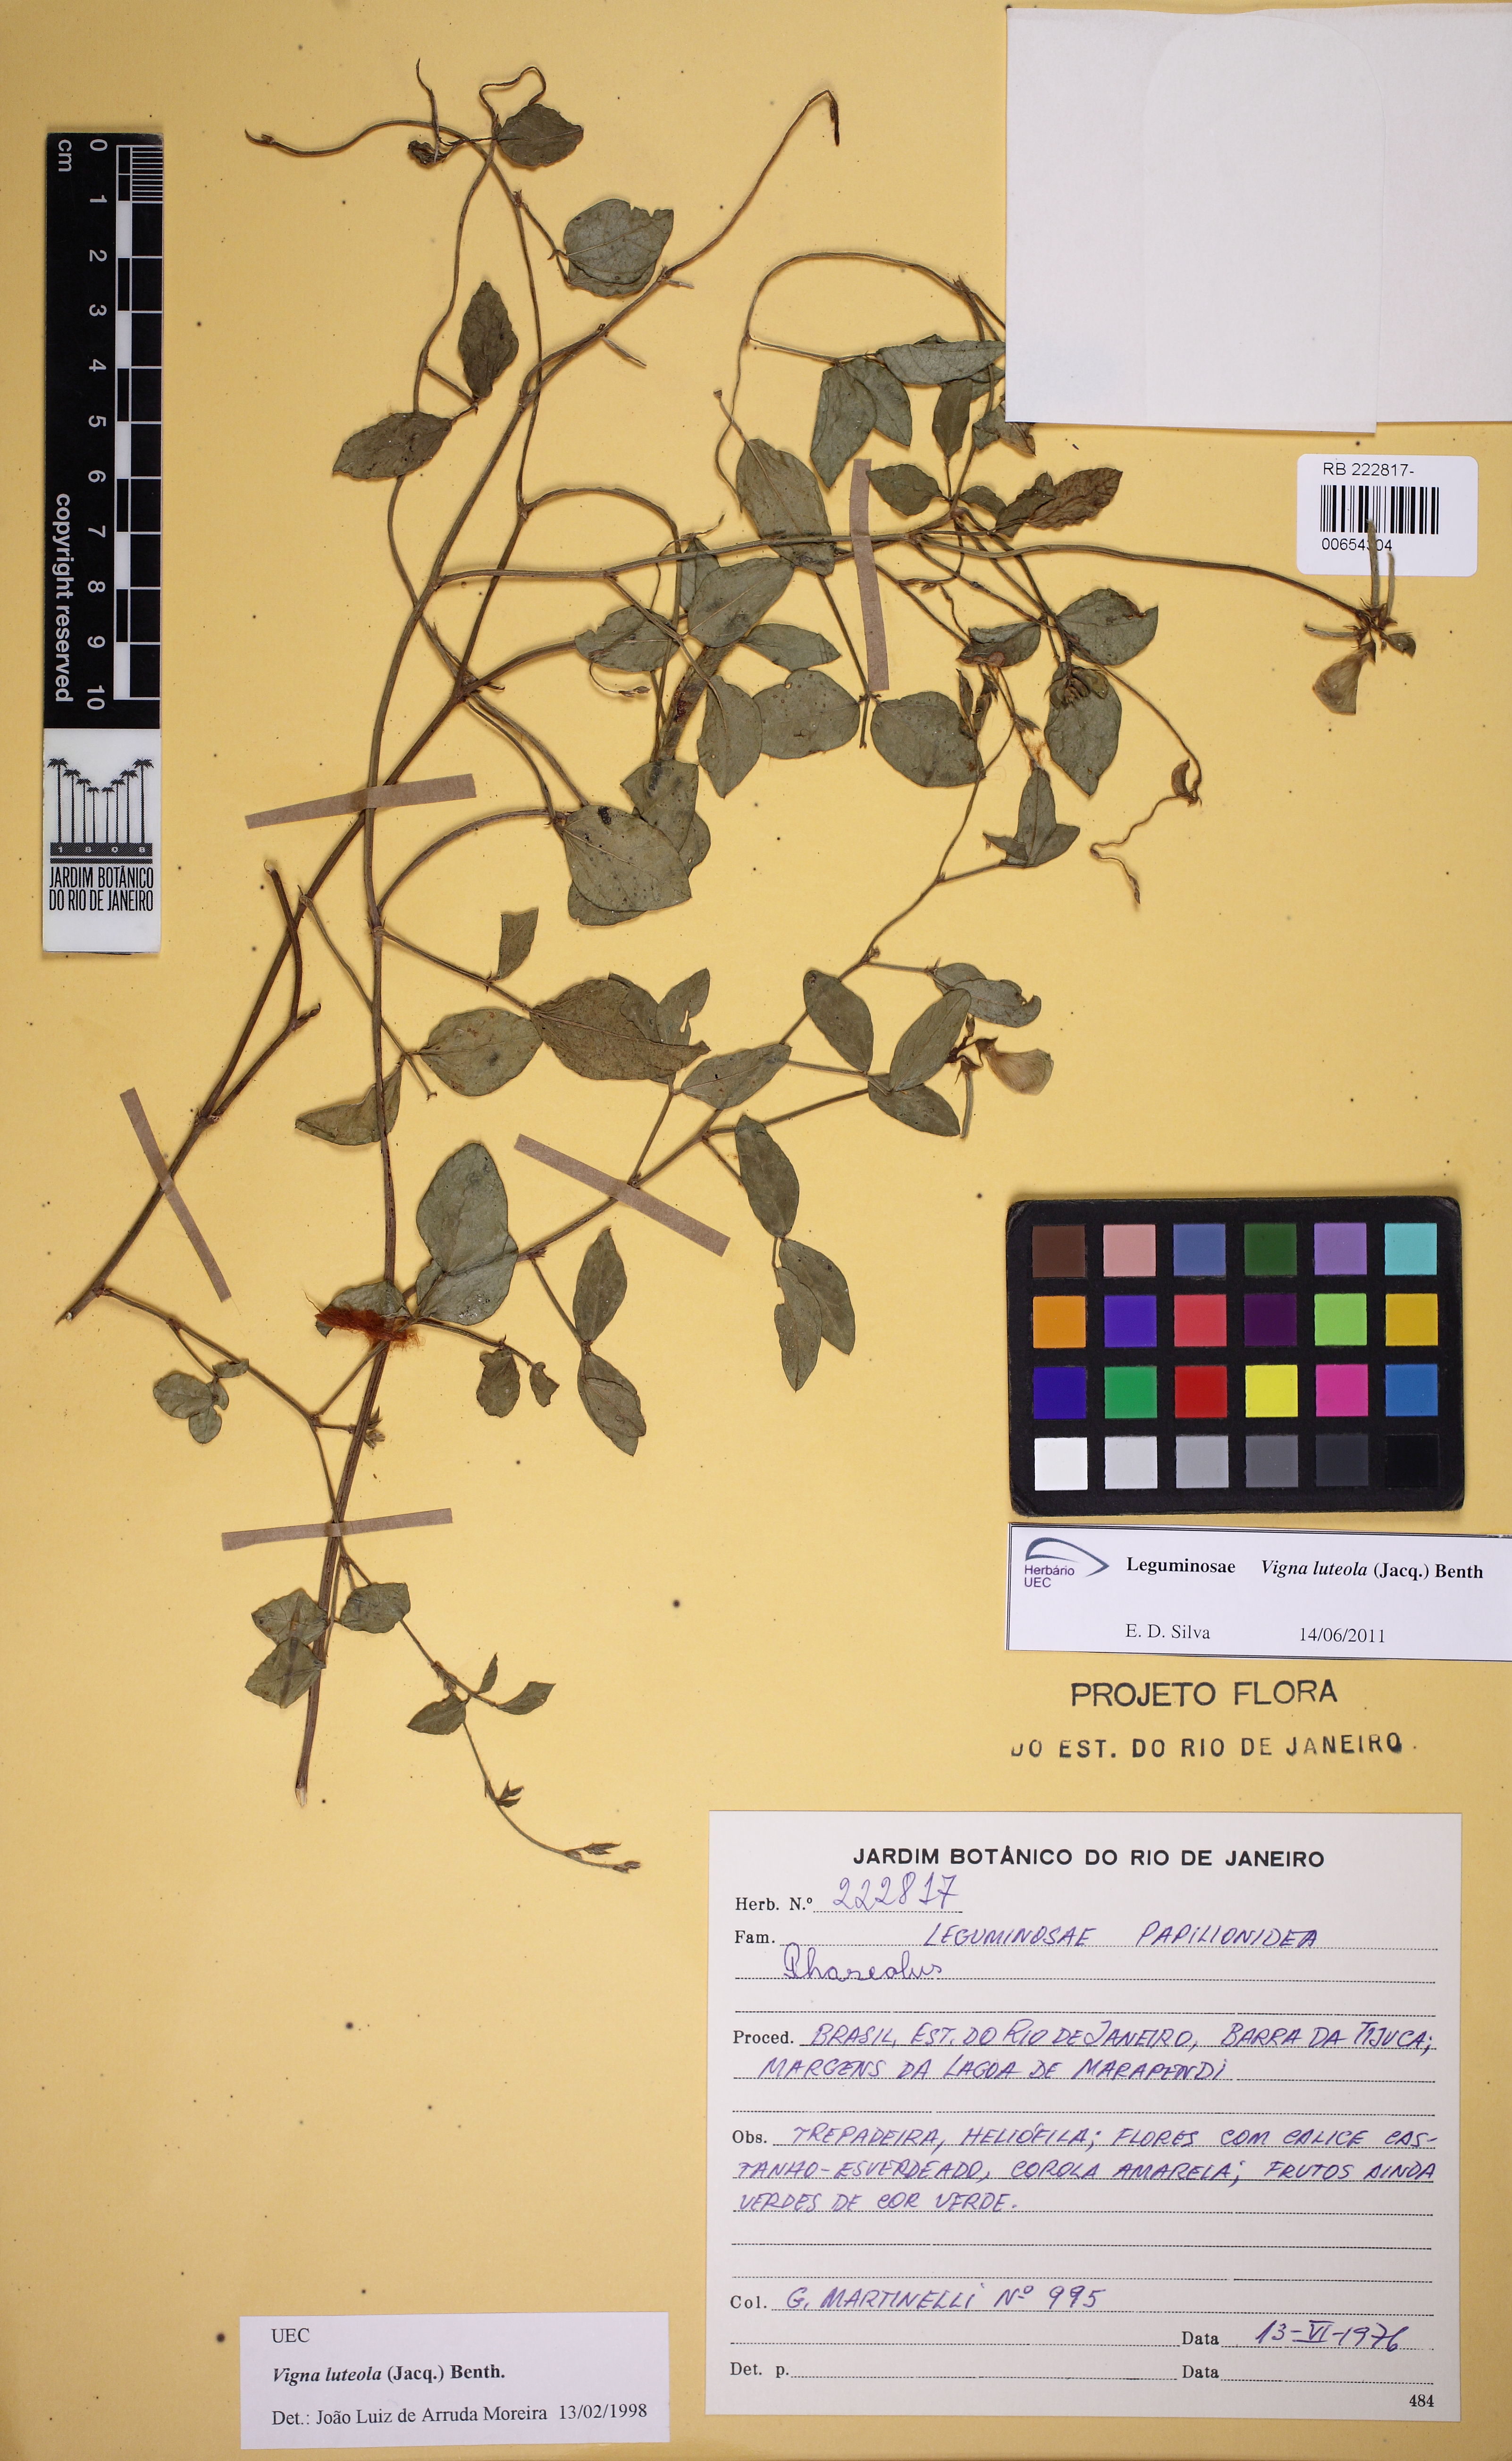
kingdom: Plantae
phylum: Tracheophyta
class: Magnoliopsida
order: Fabales
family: Fabaceae
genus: Vigna
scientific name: Vigna luteola
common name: Hairypod cowpea
